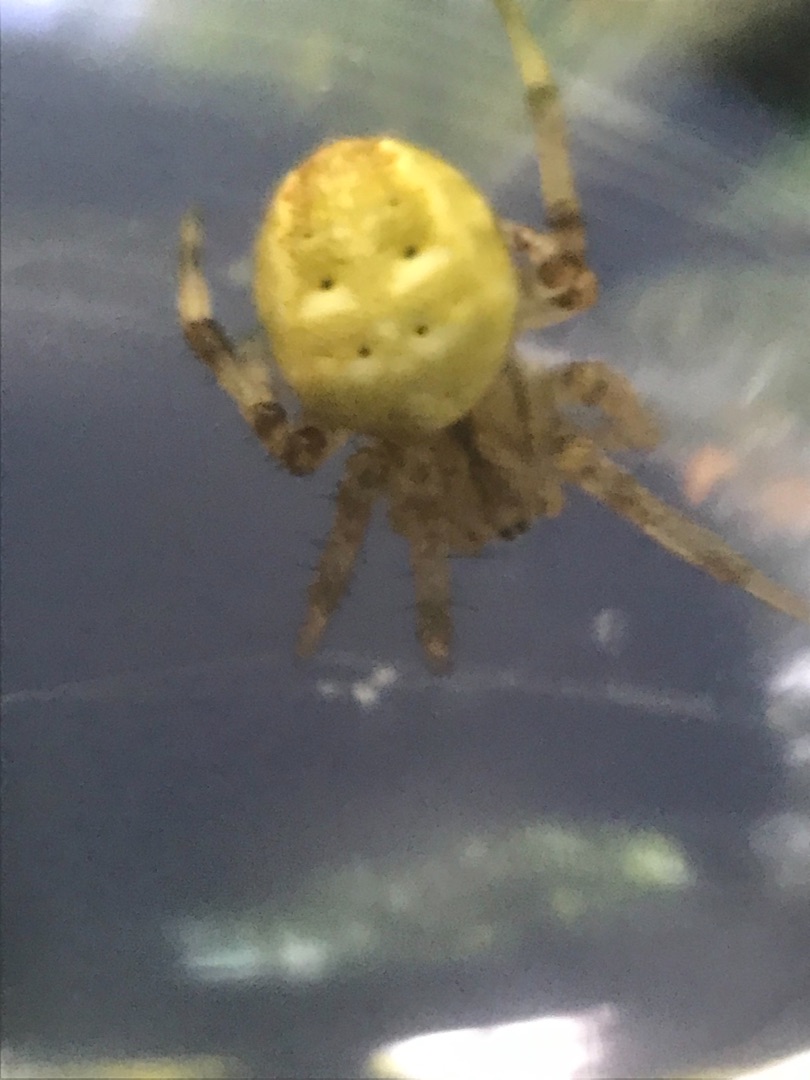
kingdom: Animalia
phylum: Arthropoda
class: Arachnida
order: Araneae
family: Araneidae
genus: Araneus
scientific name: Araneus quadratus
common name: Kvadratedderkop
